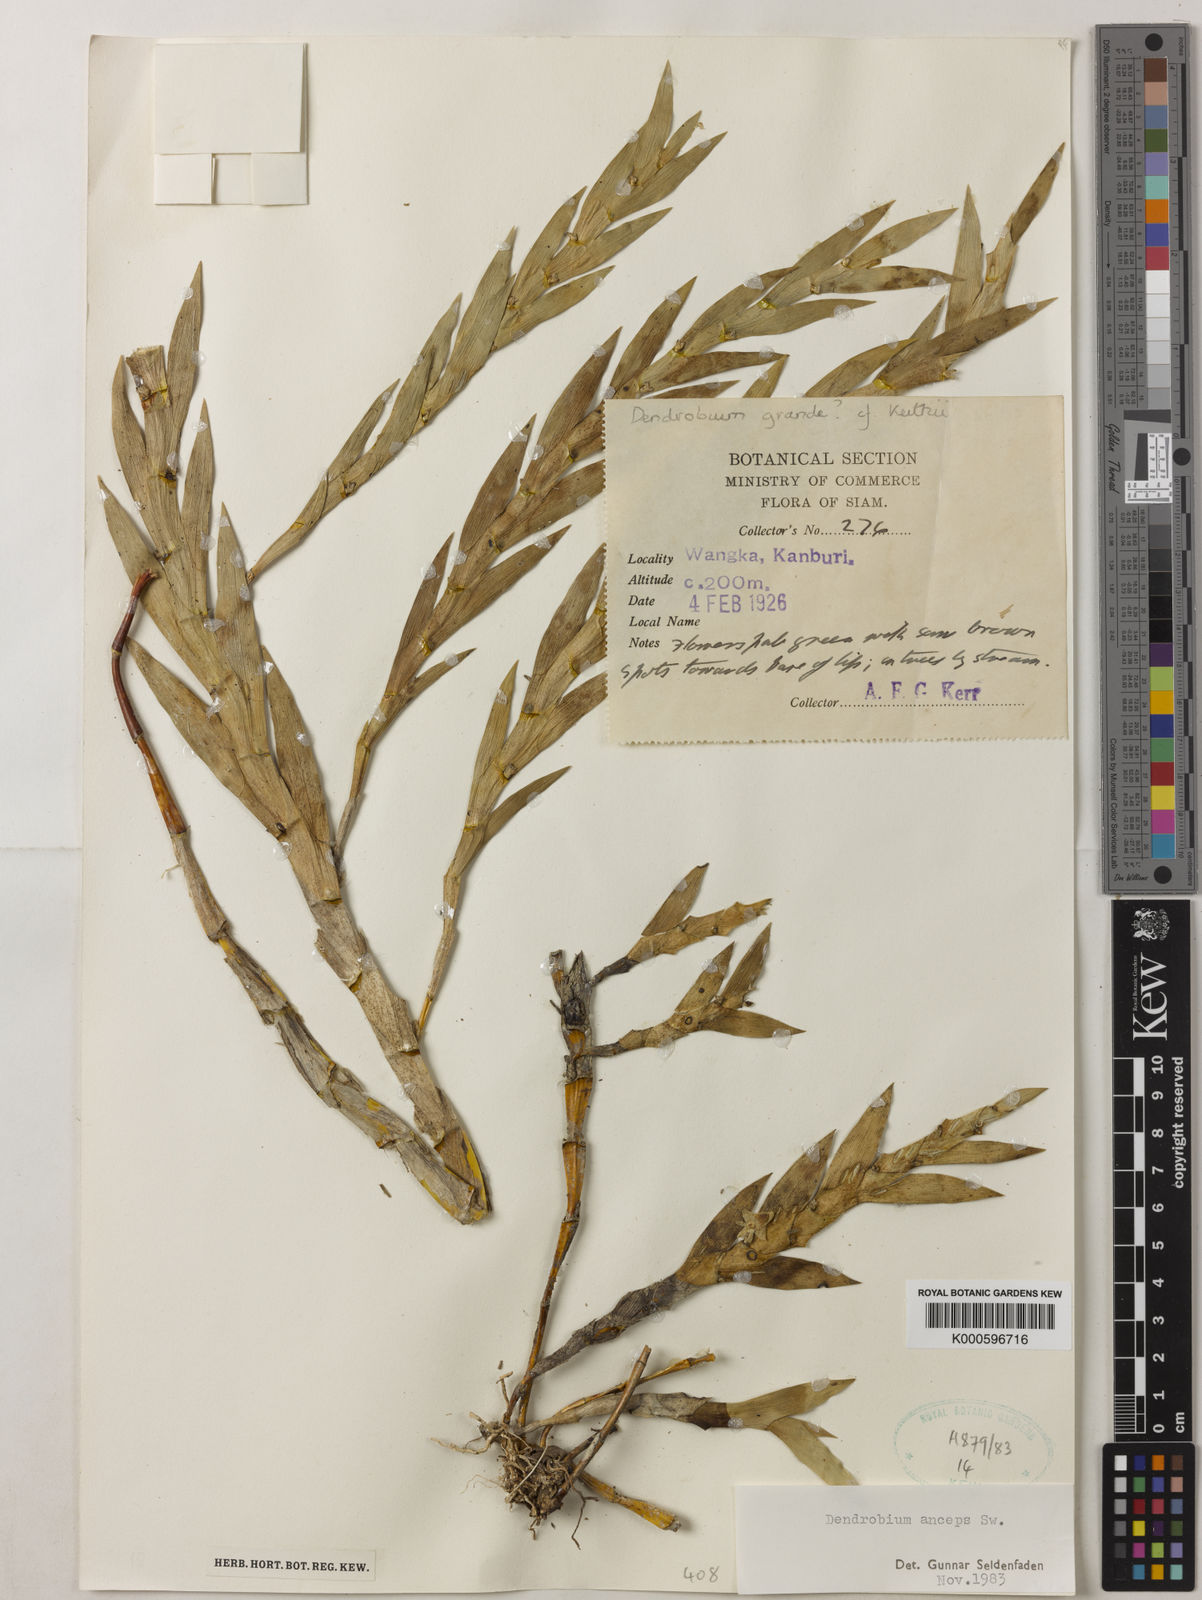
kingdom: Plantae
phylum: Tracheophyta
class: Liliopsida
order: Asparagales
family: Orchidaceae
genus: Dendrobium
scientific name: Dendrobium anceps
